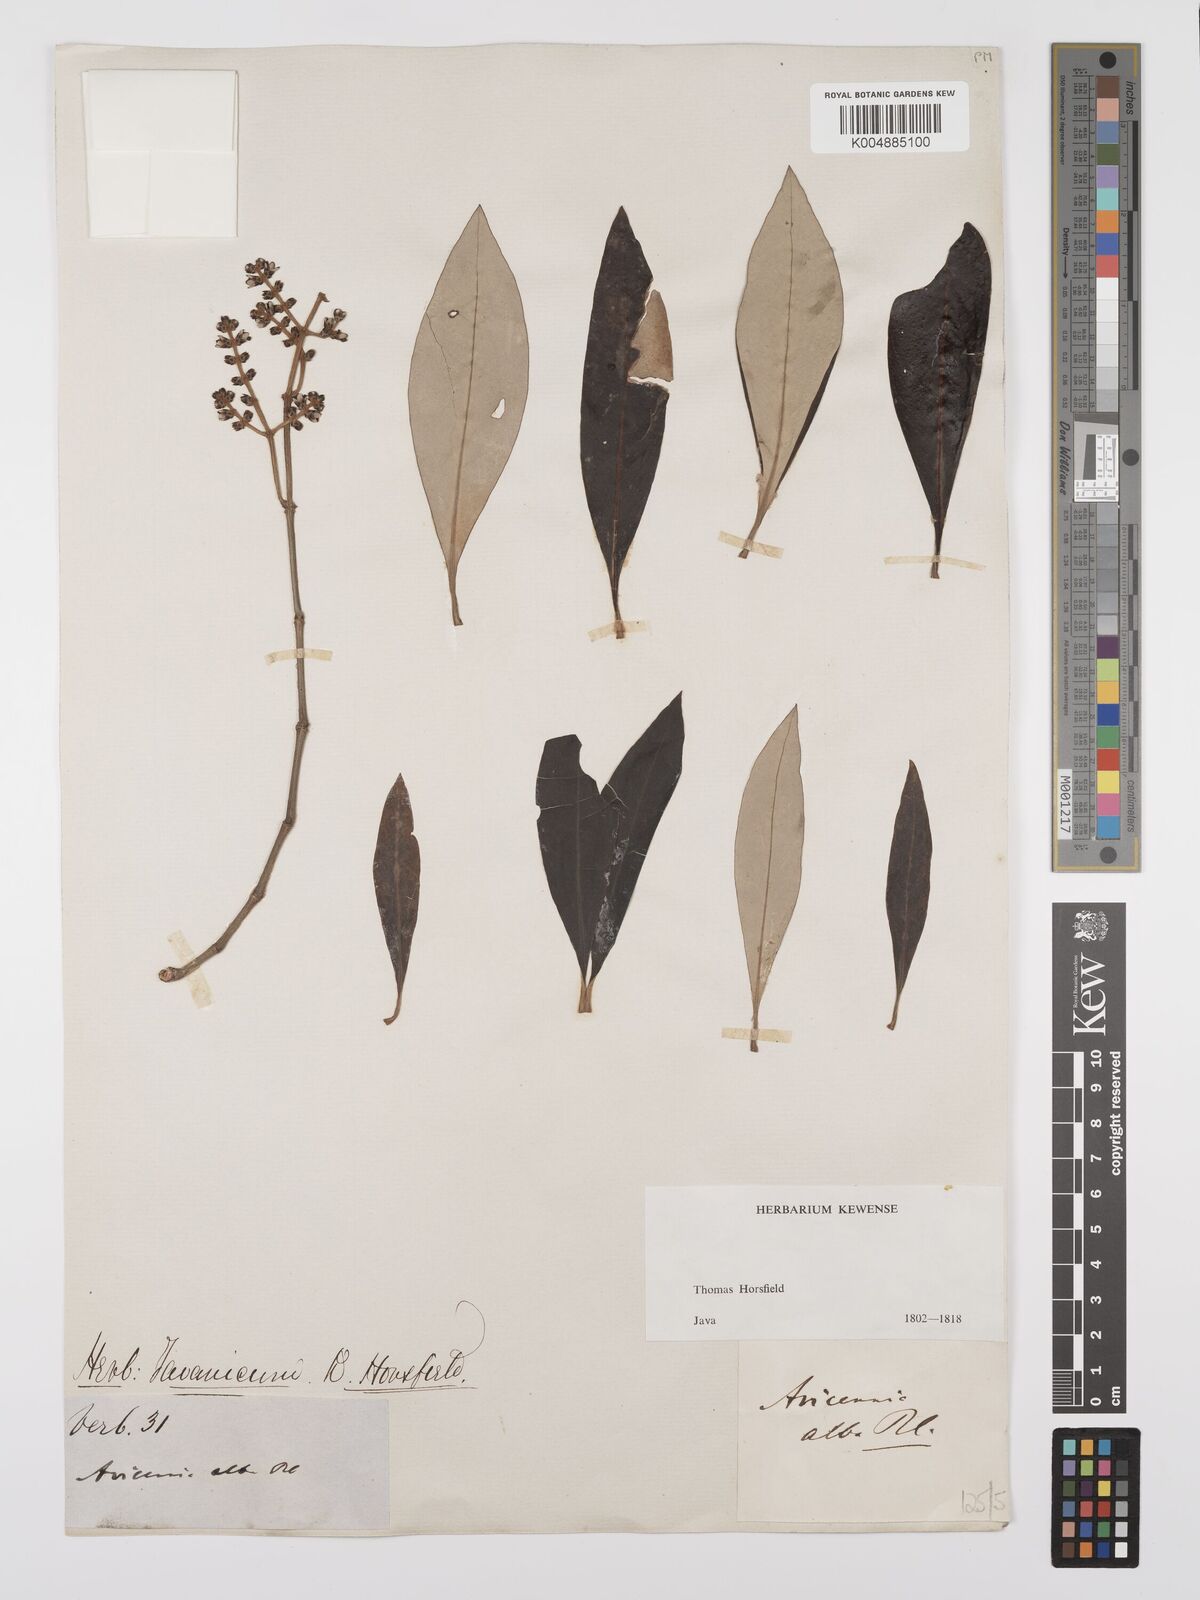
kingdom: Plantae
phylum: Tracheophyta
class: Magnoliopsida
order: Lamiales
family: Acanthaceae
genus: Avicennia
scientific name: Avicennia alba
